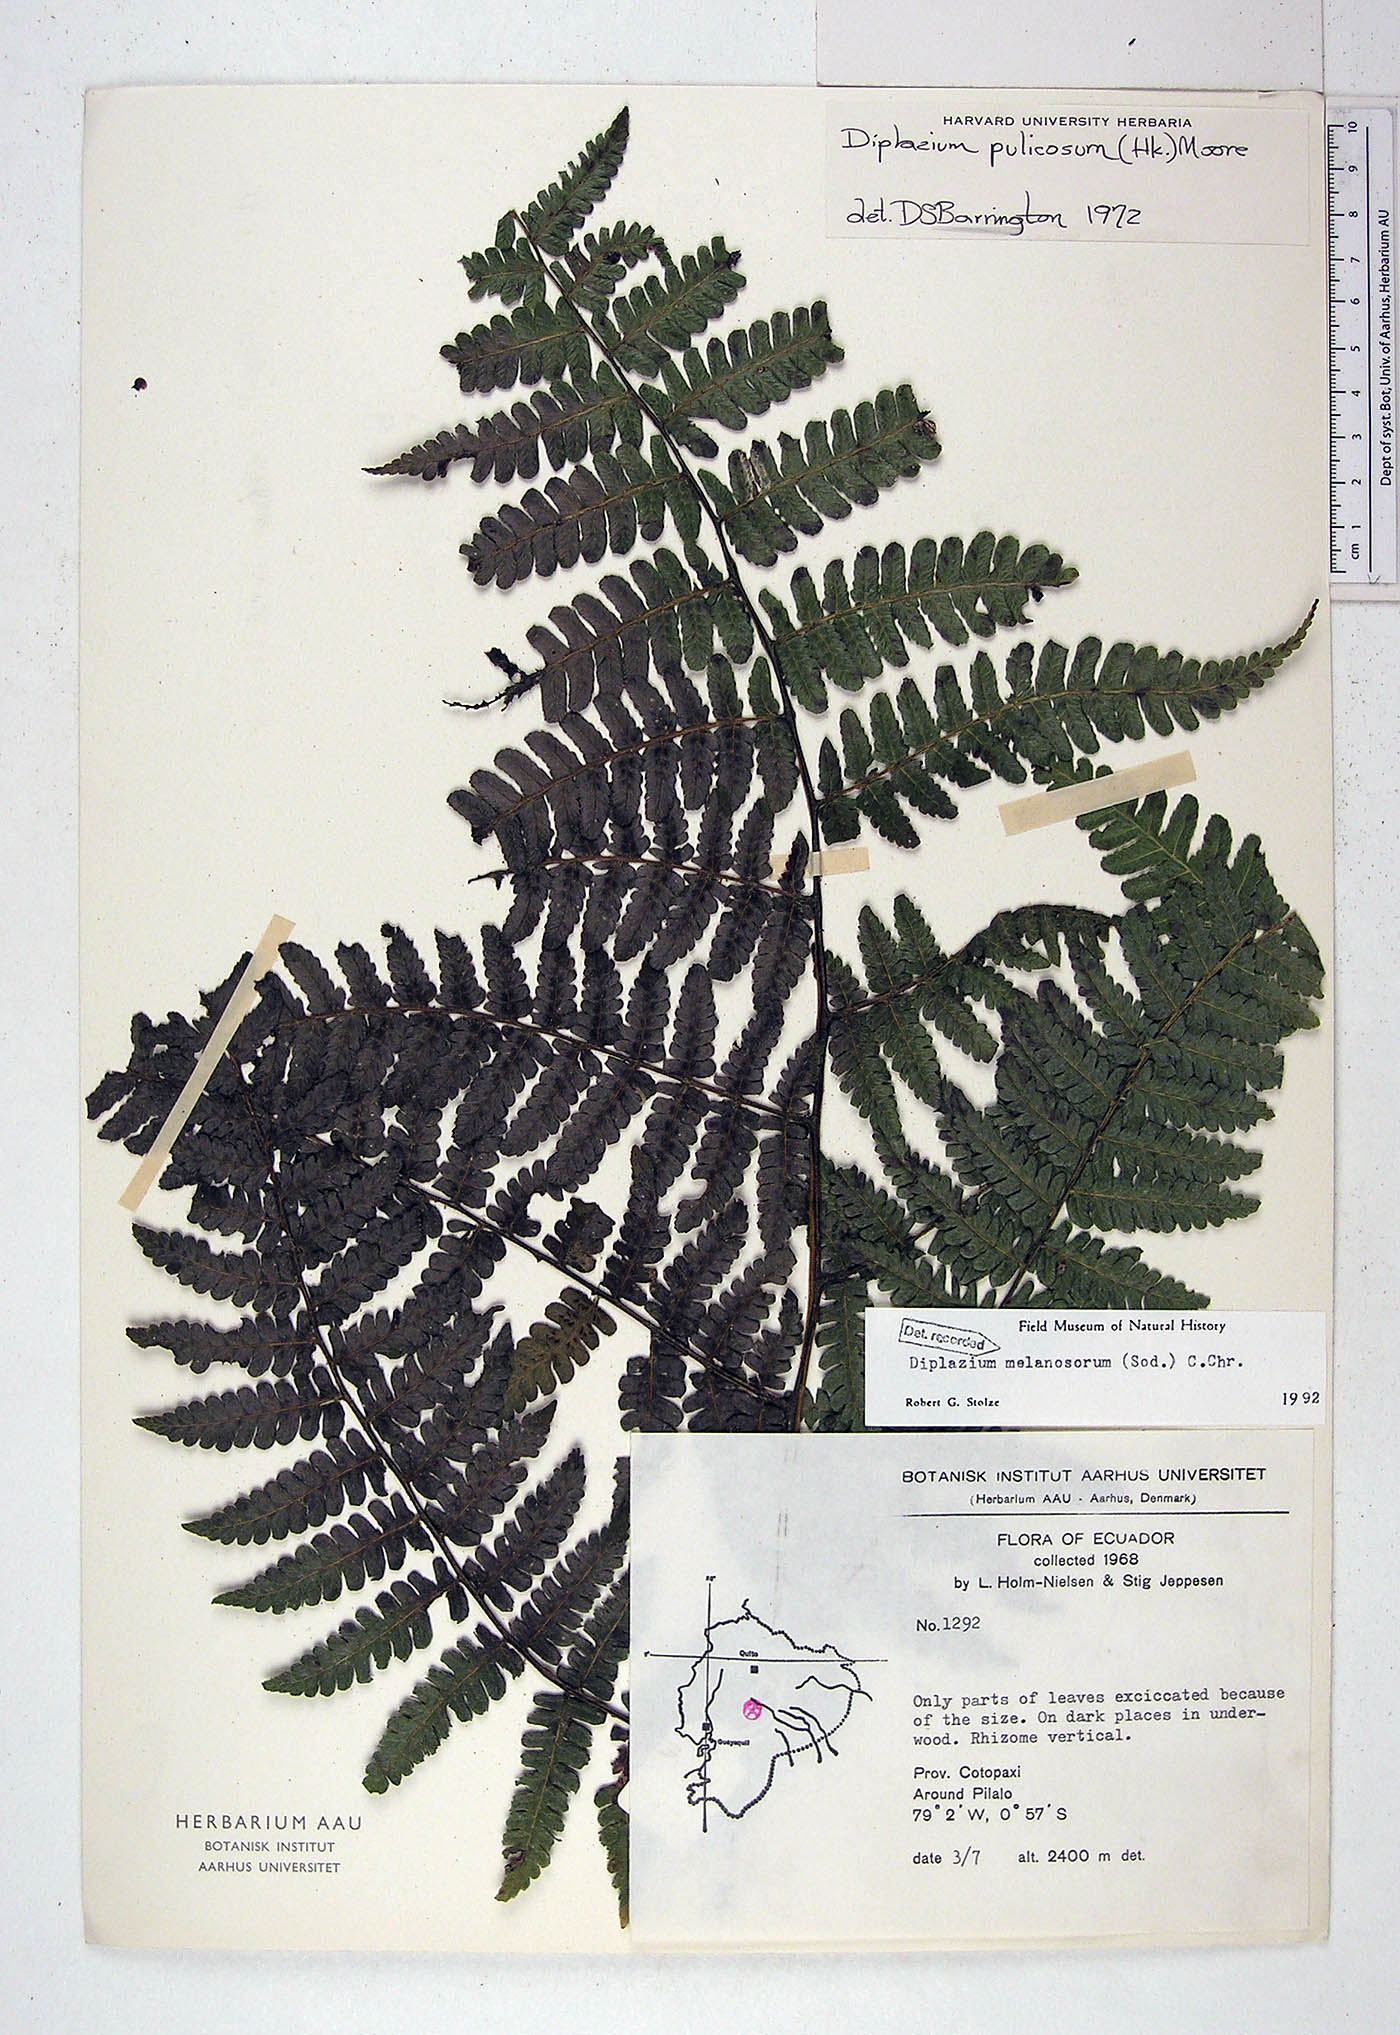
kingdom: Plantae
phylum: Tracheophyta
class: Polypodiopsida
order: Polypodiales
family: Athyriaceae
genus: Diplazium
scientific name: Diplazium melanosorum
